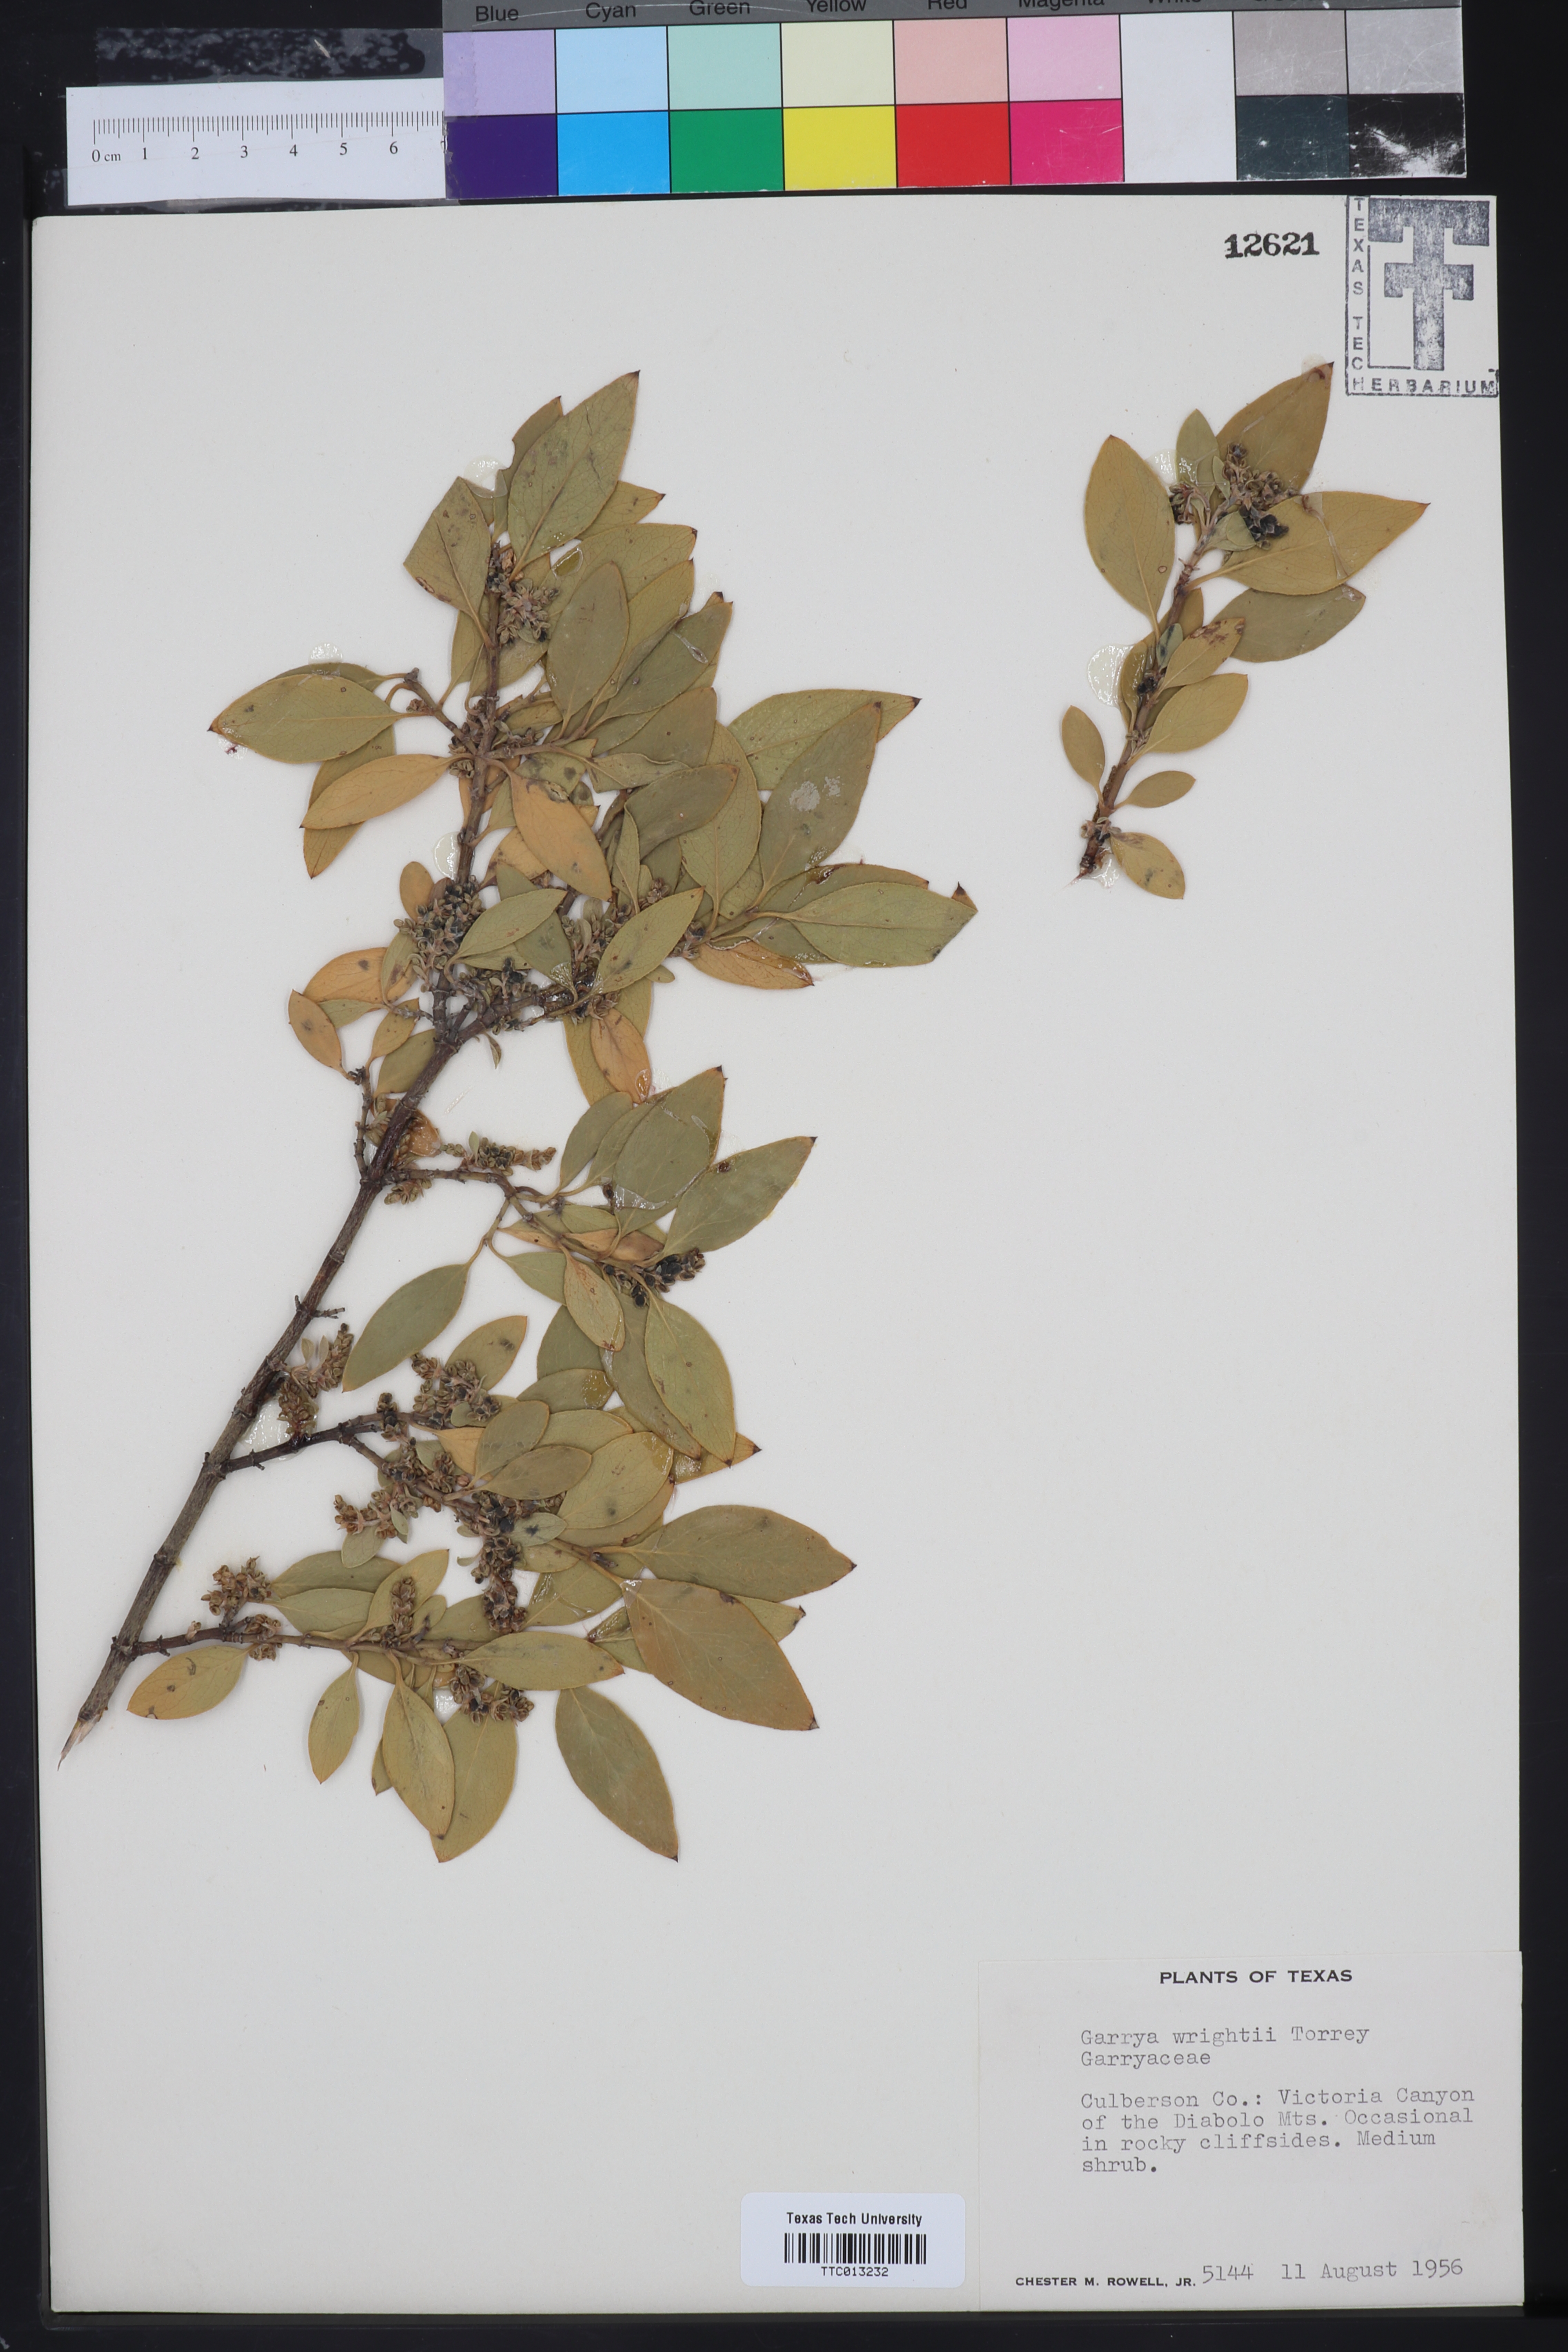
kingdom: Plantae
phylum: Tracheophyta
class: Magnoliopsida
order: Garryales
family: Garryaceae
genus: Garrya
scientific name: Garrya wrightii
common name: Wright's silktassel
